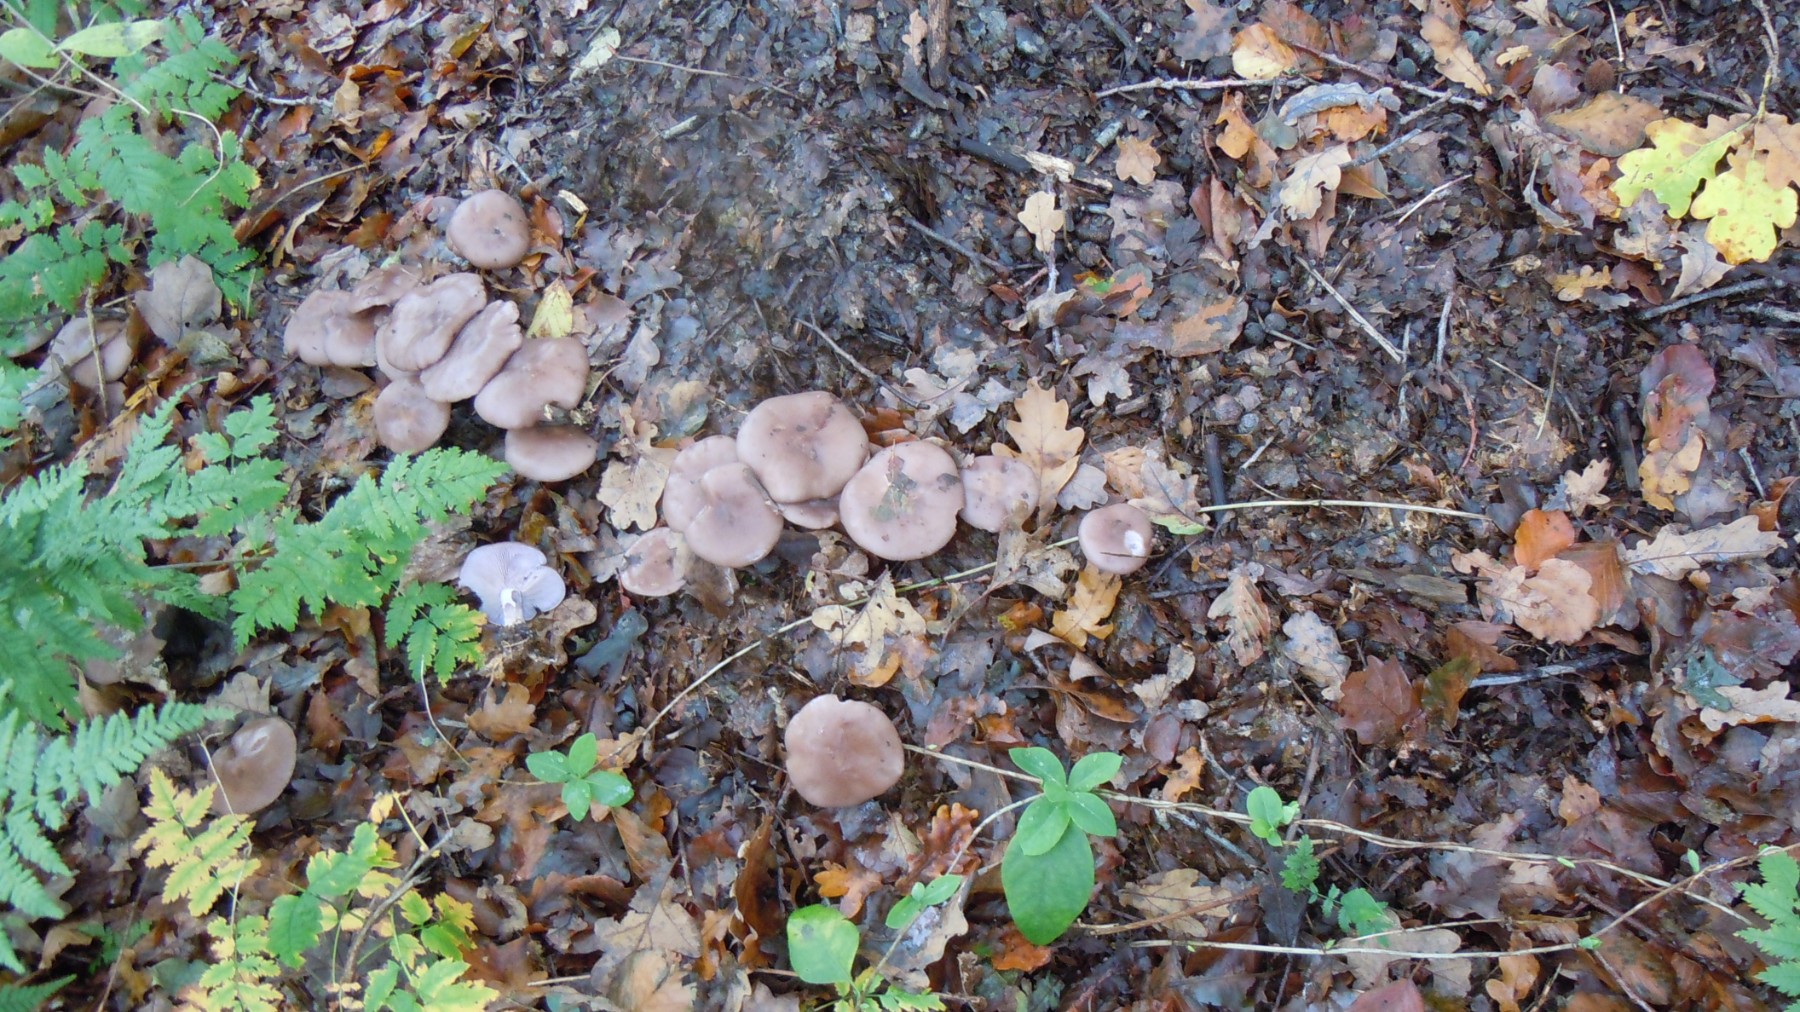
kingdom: Fungi
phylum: Basidiomycota
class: Agaricomycetes
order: Agaricales
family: Tricholomataceae
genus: Lepista
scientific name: Lepista nuda
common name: violet hekseringshat
